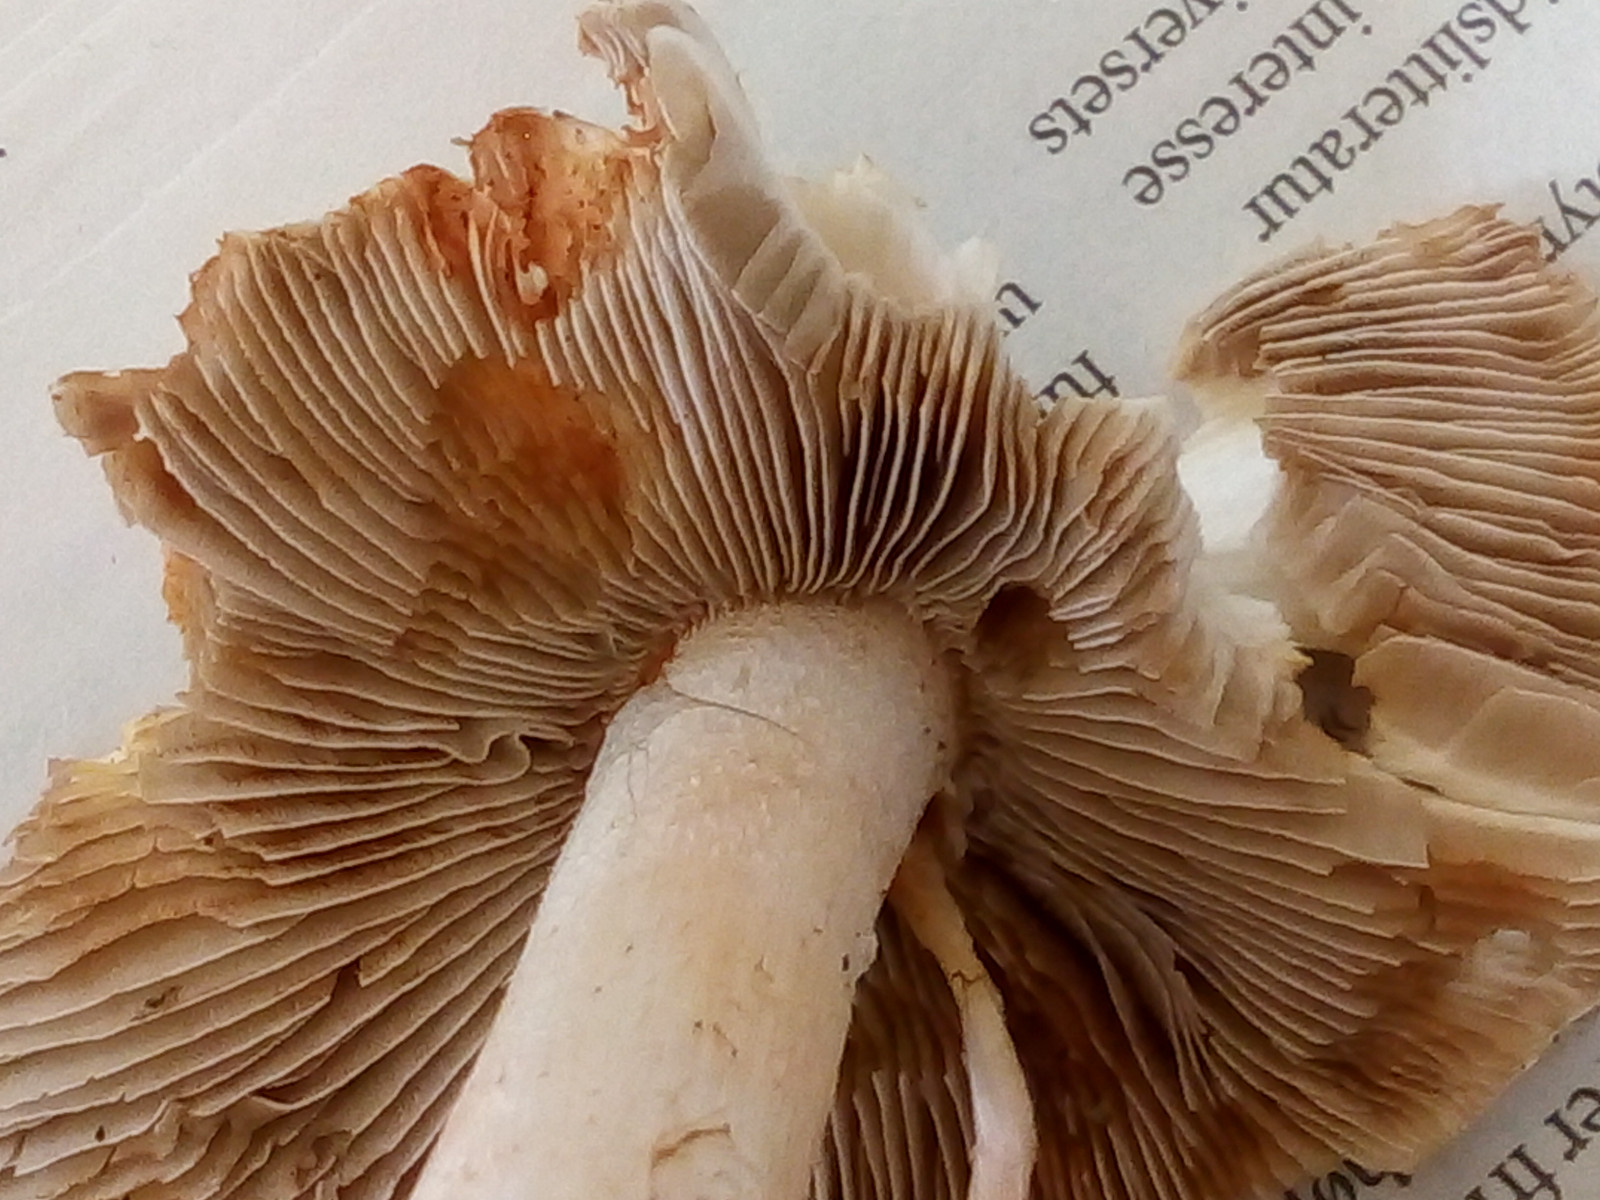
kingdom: Fungi
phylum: Basidiomycota
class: Agaricomycetes
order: Agaricales
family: Inocybaceae
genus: Inosperma
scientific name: Inosperma erubescens
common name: giftig trævlhat
